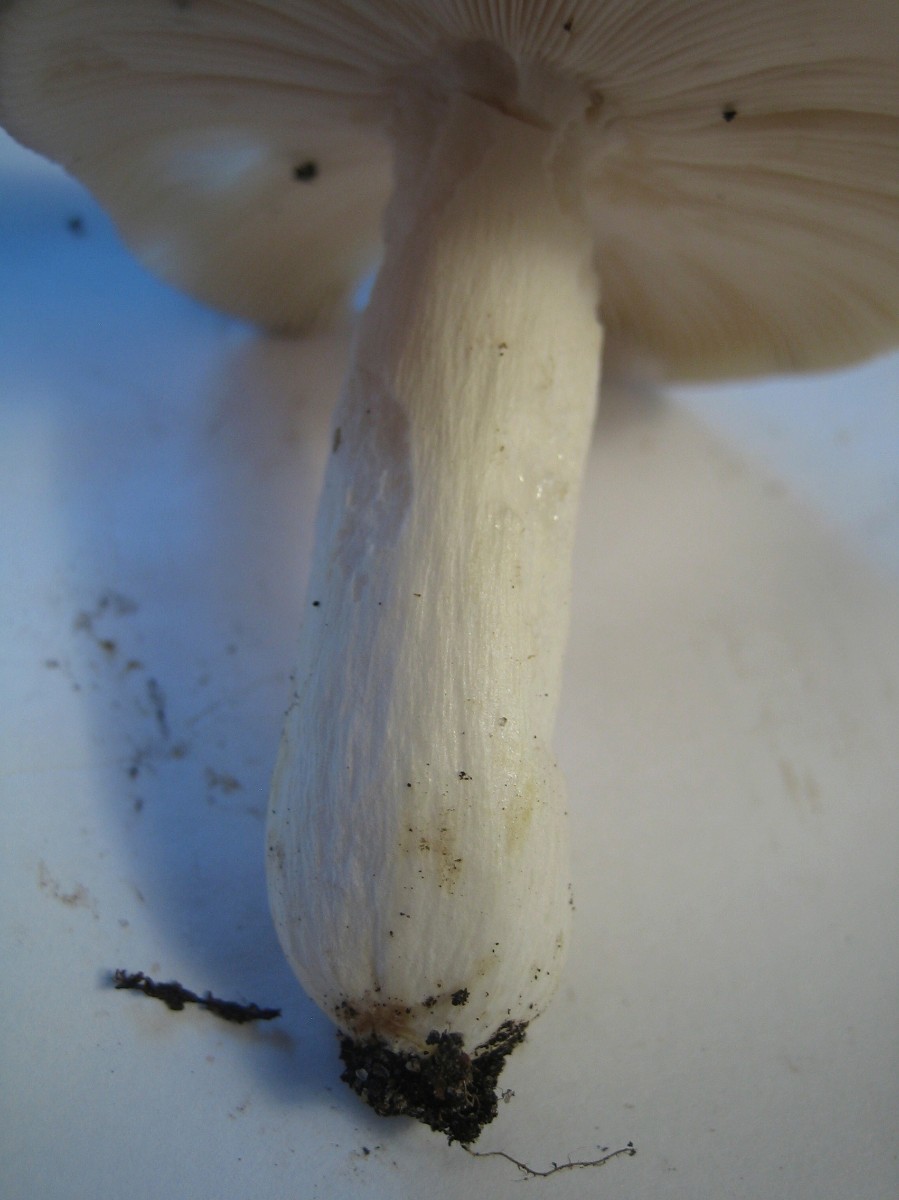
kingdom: Fungi
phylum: Basidiomycota
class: Agaricomycetes
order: Russulales
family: Russulaceae
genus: Russula
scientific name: Russula
